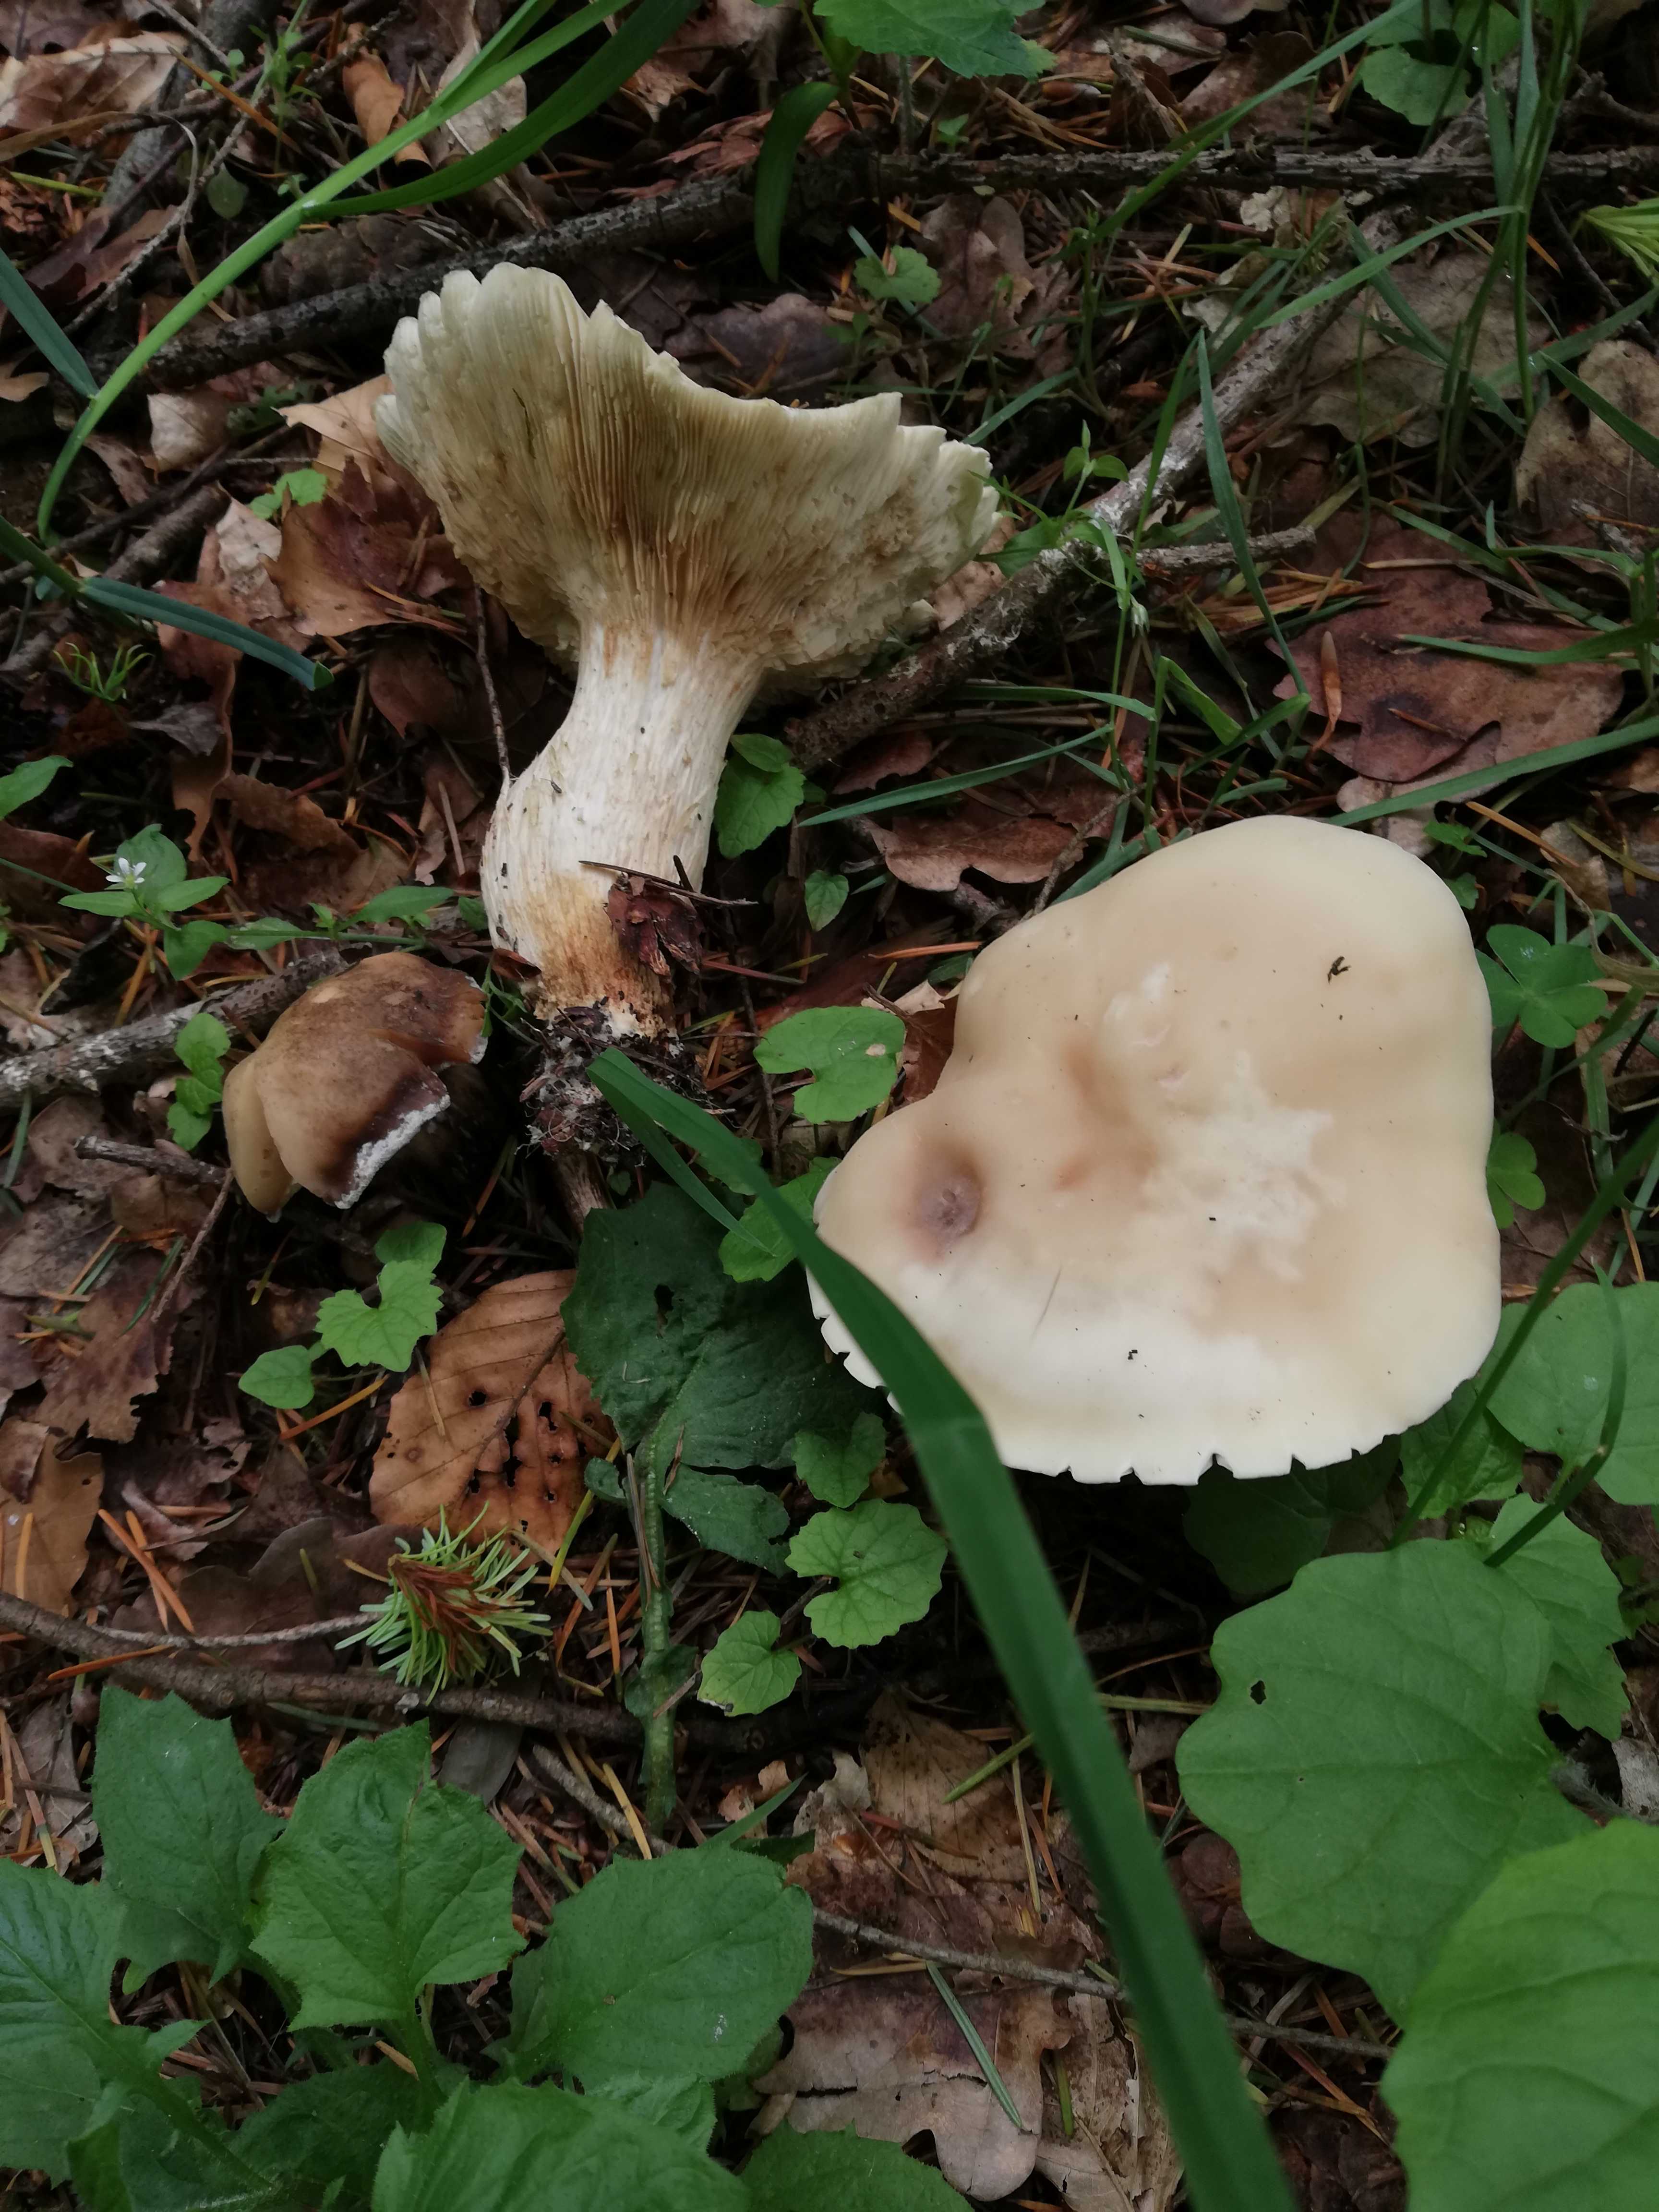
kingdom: Fungi
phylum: Basidiomycota
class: Agaricomycetes
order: Agaricales
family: Lyophyllaceae
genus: Calocybe
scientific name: Calocybe gambosa
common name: vårmusseron
